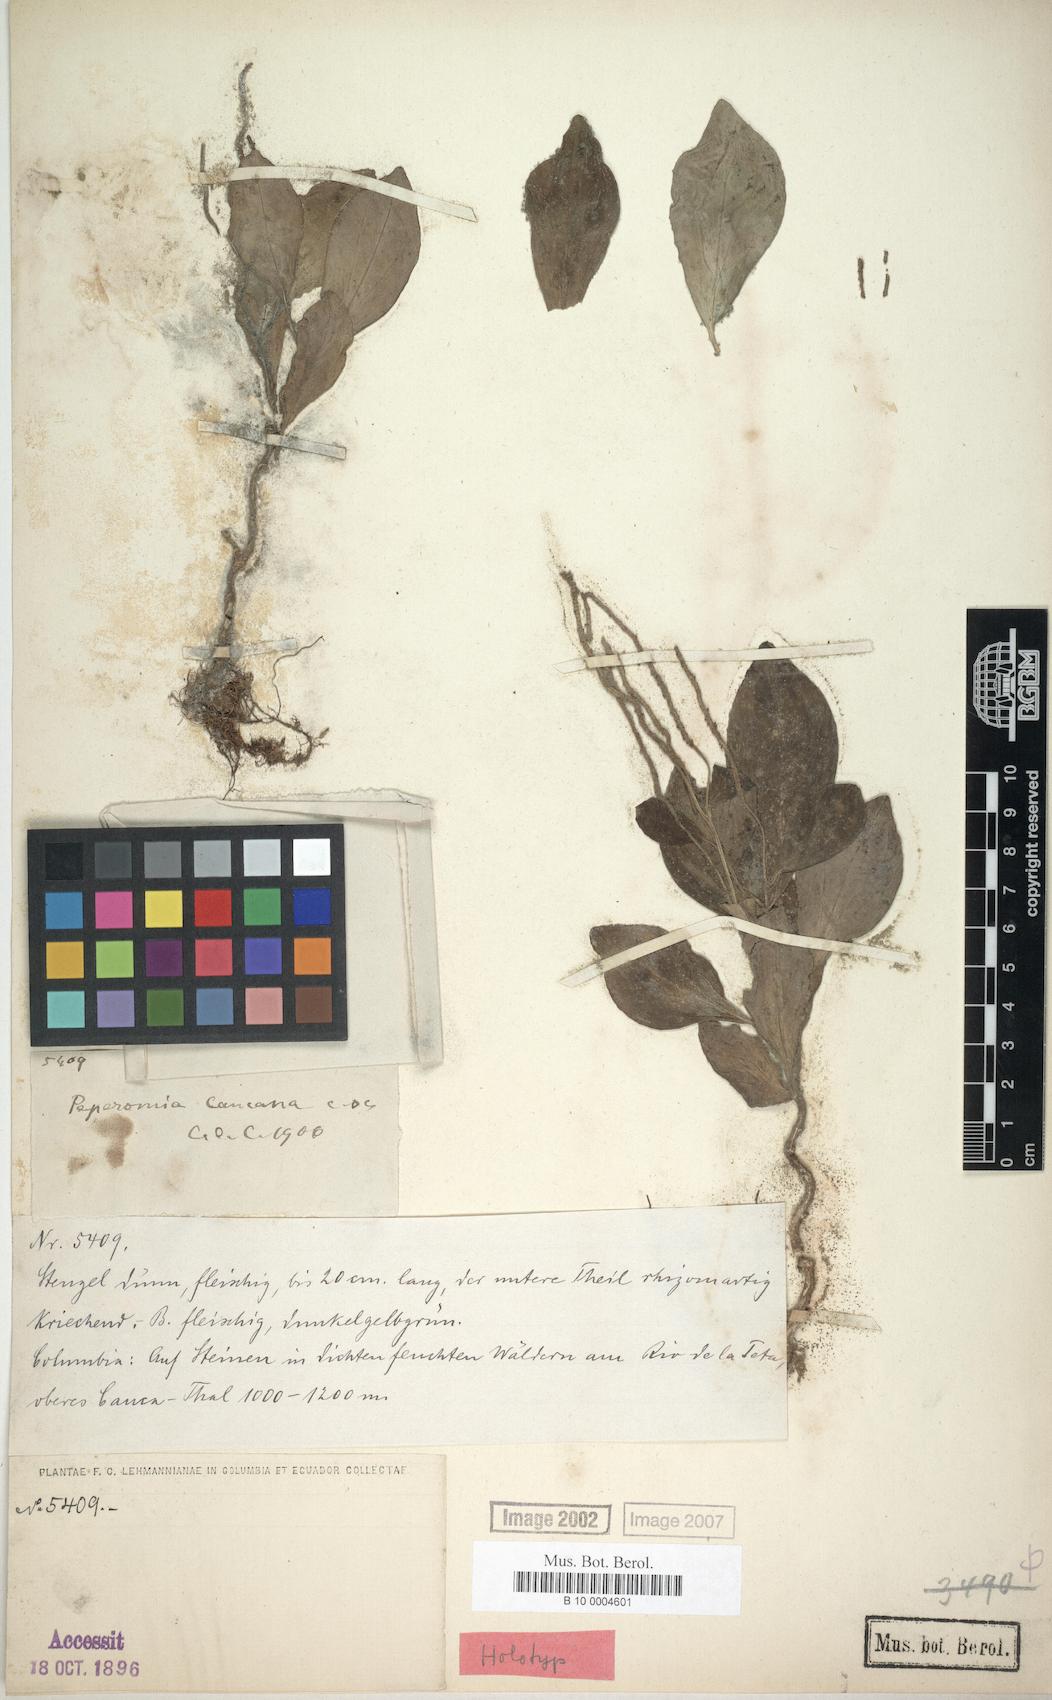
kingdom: Plantae
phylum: Tracheophyta
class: Magnoliopsida
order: Piperales
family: Piperaceae
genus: Peperomia
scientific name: Peperomia succulenta
